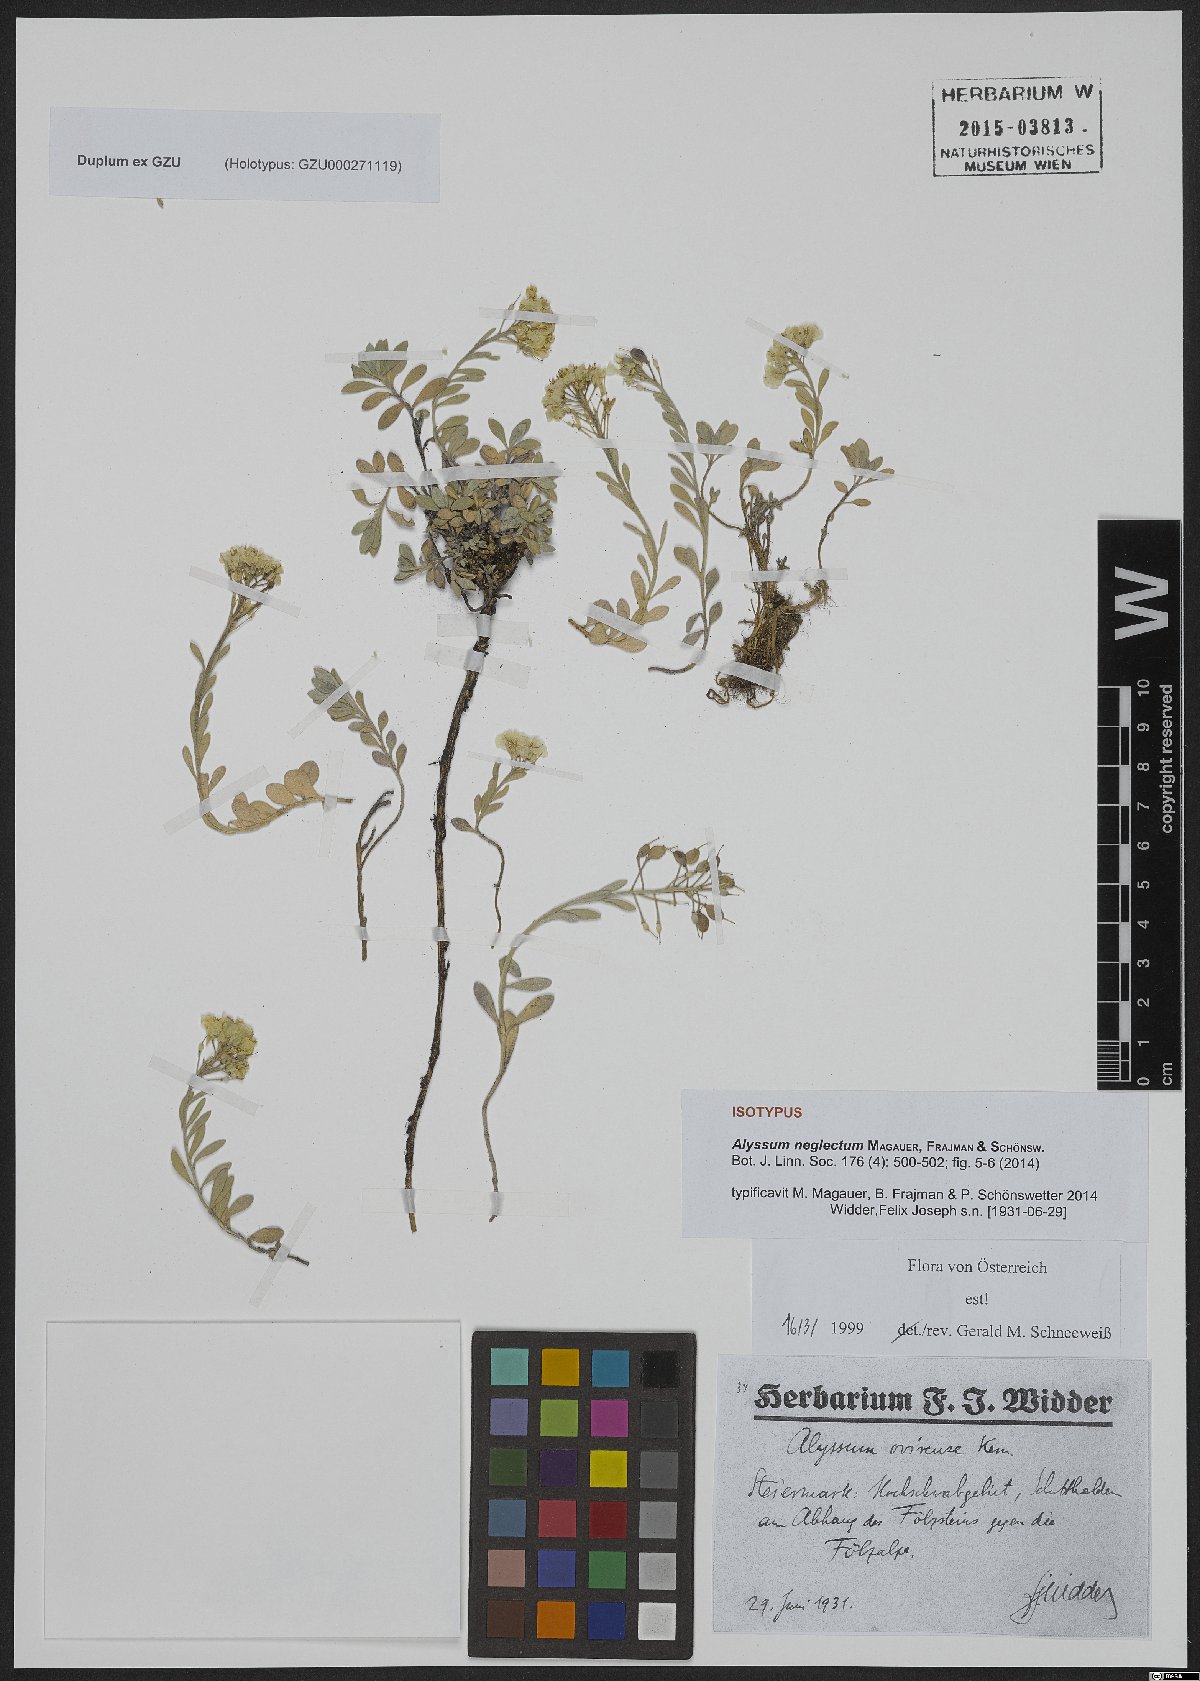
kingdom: Plantae
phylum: Tracheophyta
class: Magnoliopsida
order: Brassicales
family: Brassicaceae
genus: Alyssum
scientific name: Alyssum neglectum
